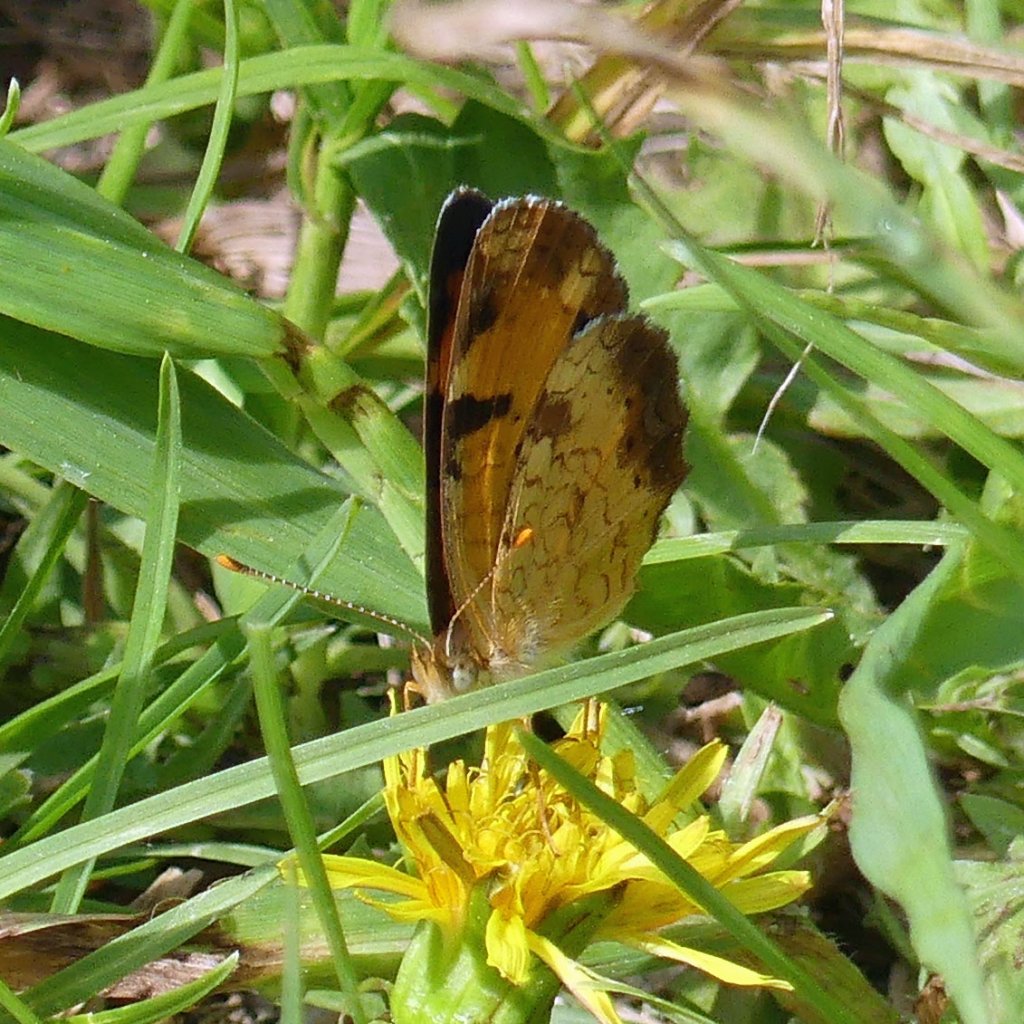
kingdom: Animalia
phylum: Arthropoda
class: Insecta
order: Lepidoptera
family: Nymphalidae
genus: Phyciodes
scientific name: Phyciodes tharos
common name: Northern Crescent
